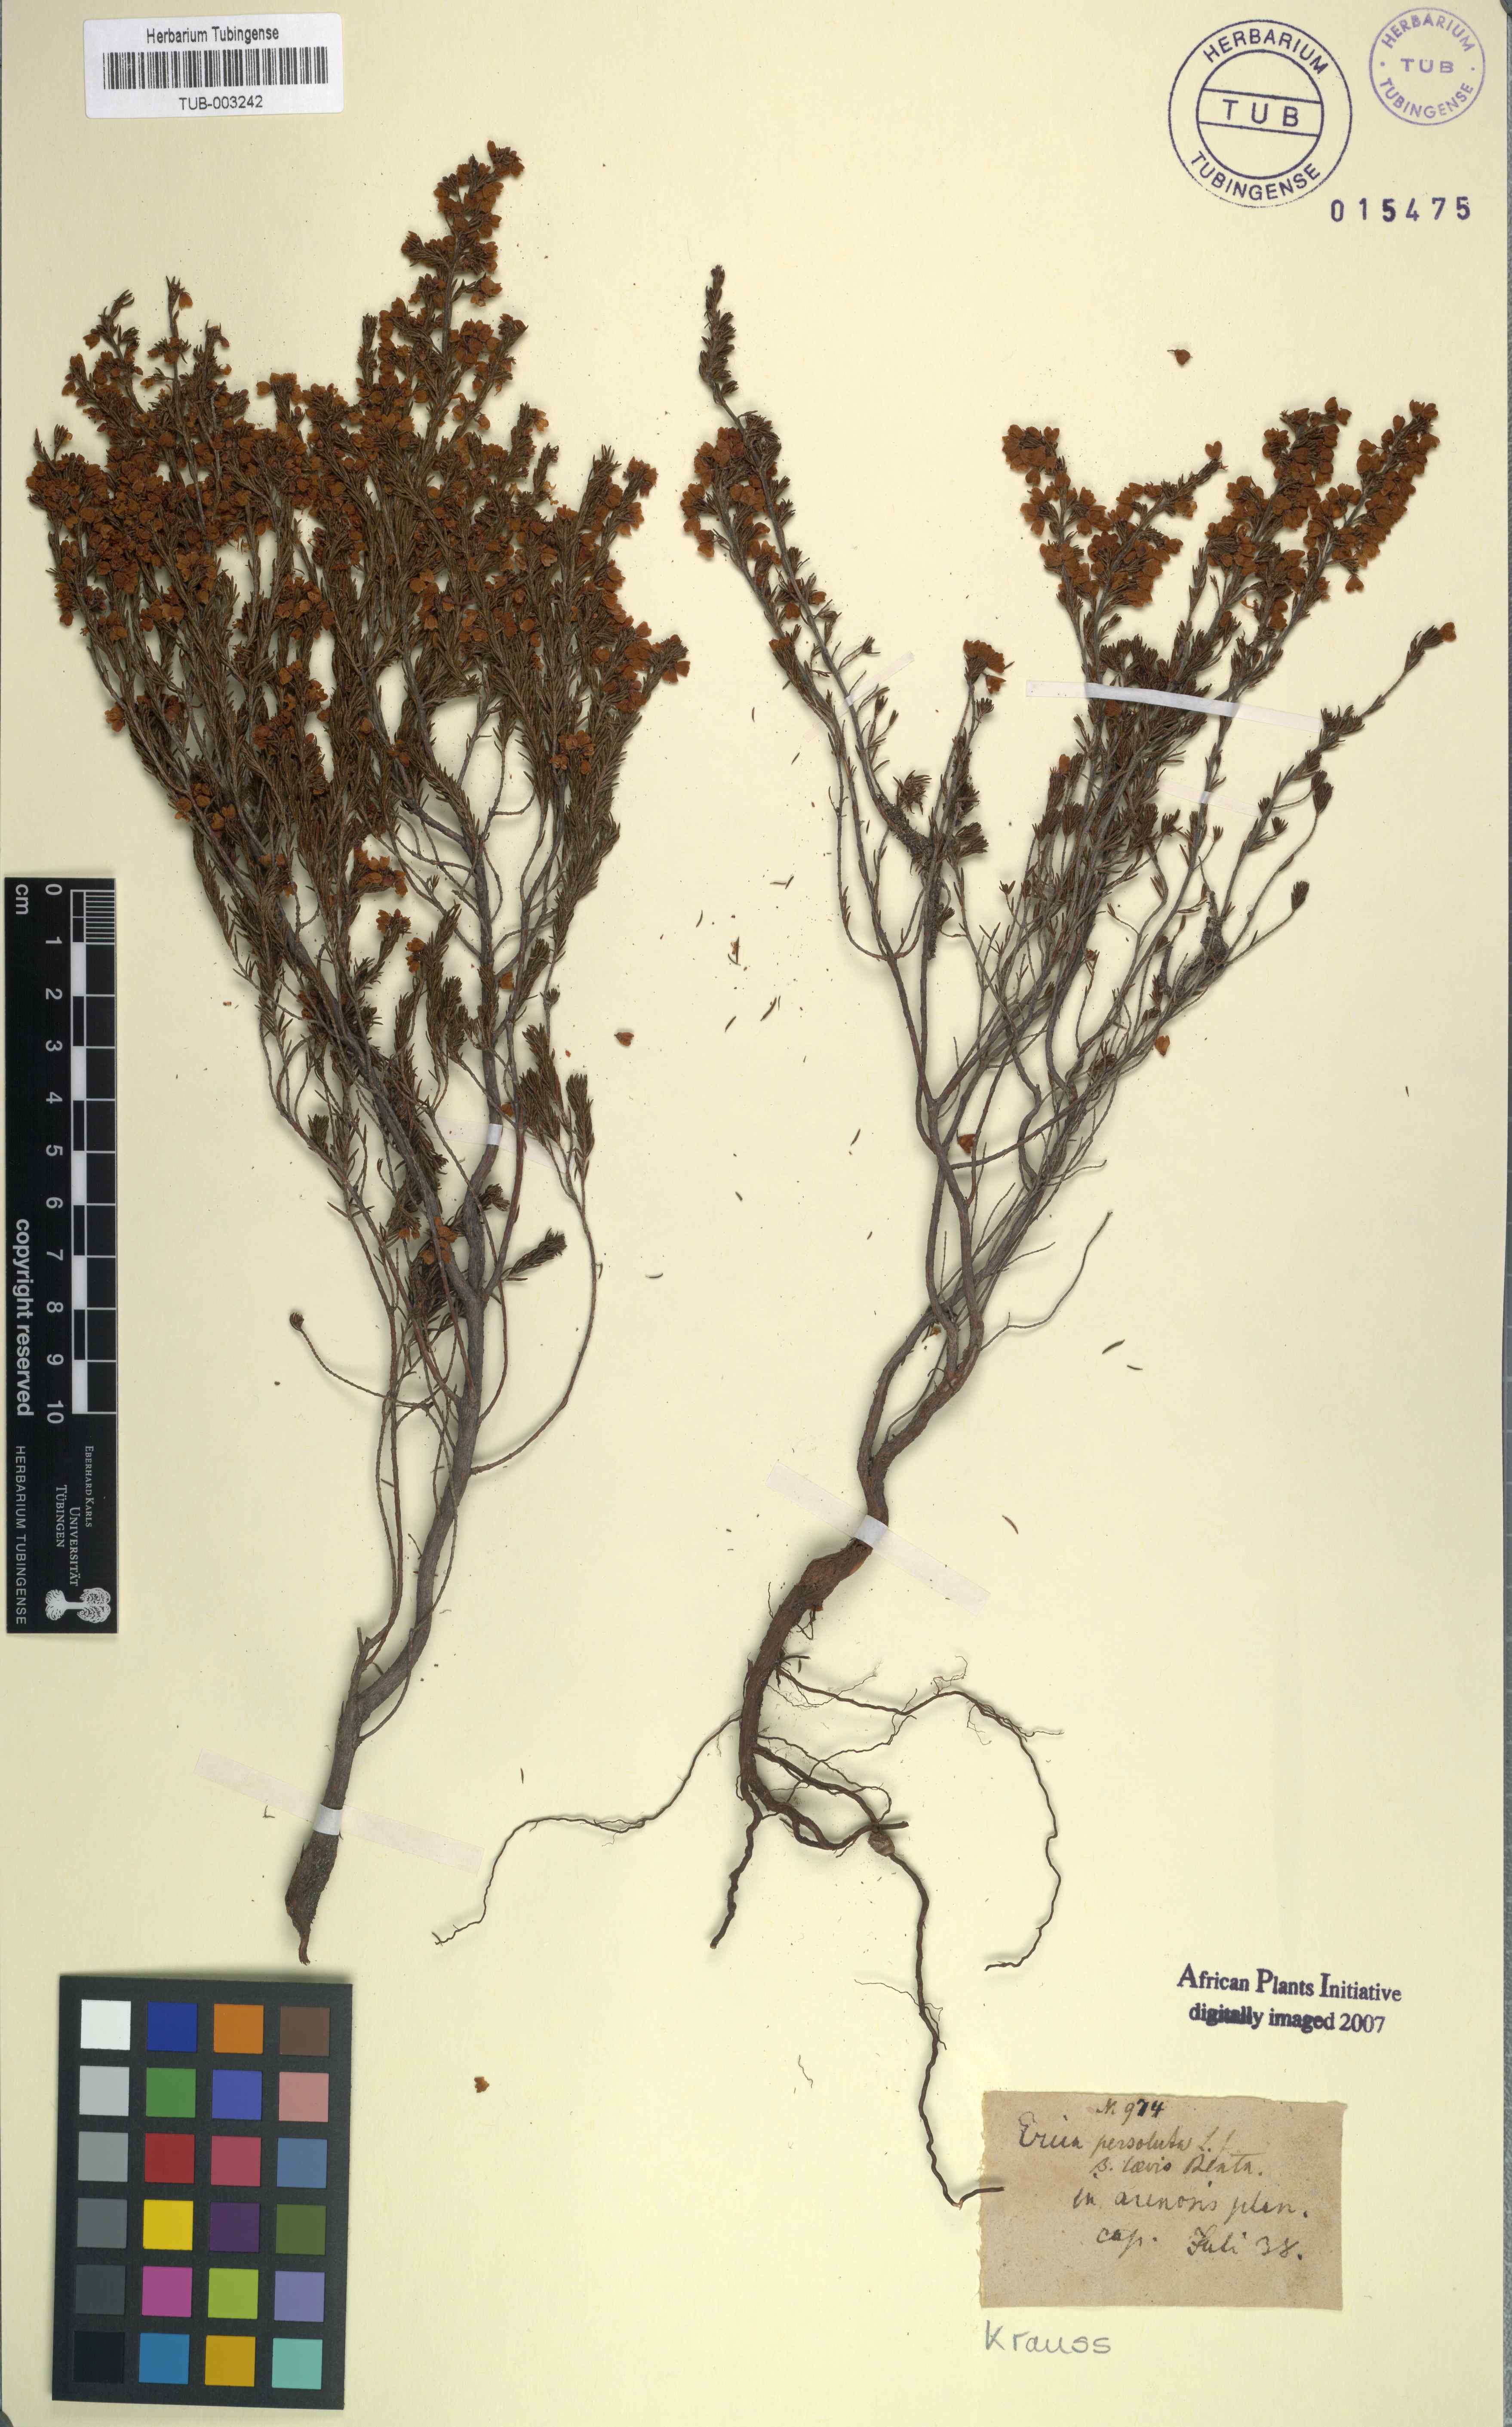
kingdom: Plantae
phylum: Tracheophyta
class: Magnoliopsida
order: Ericales
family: Ericaceae
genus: Erica
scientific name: Erica subdivaricata
